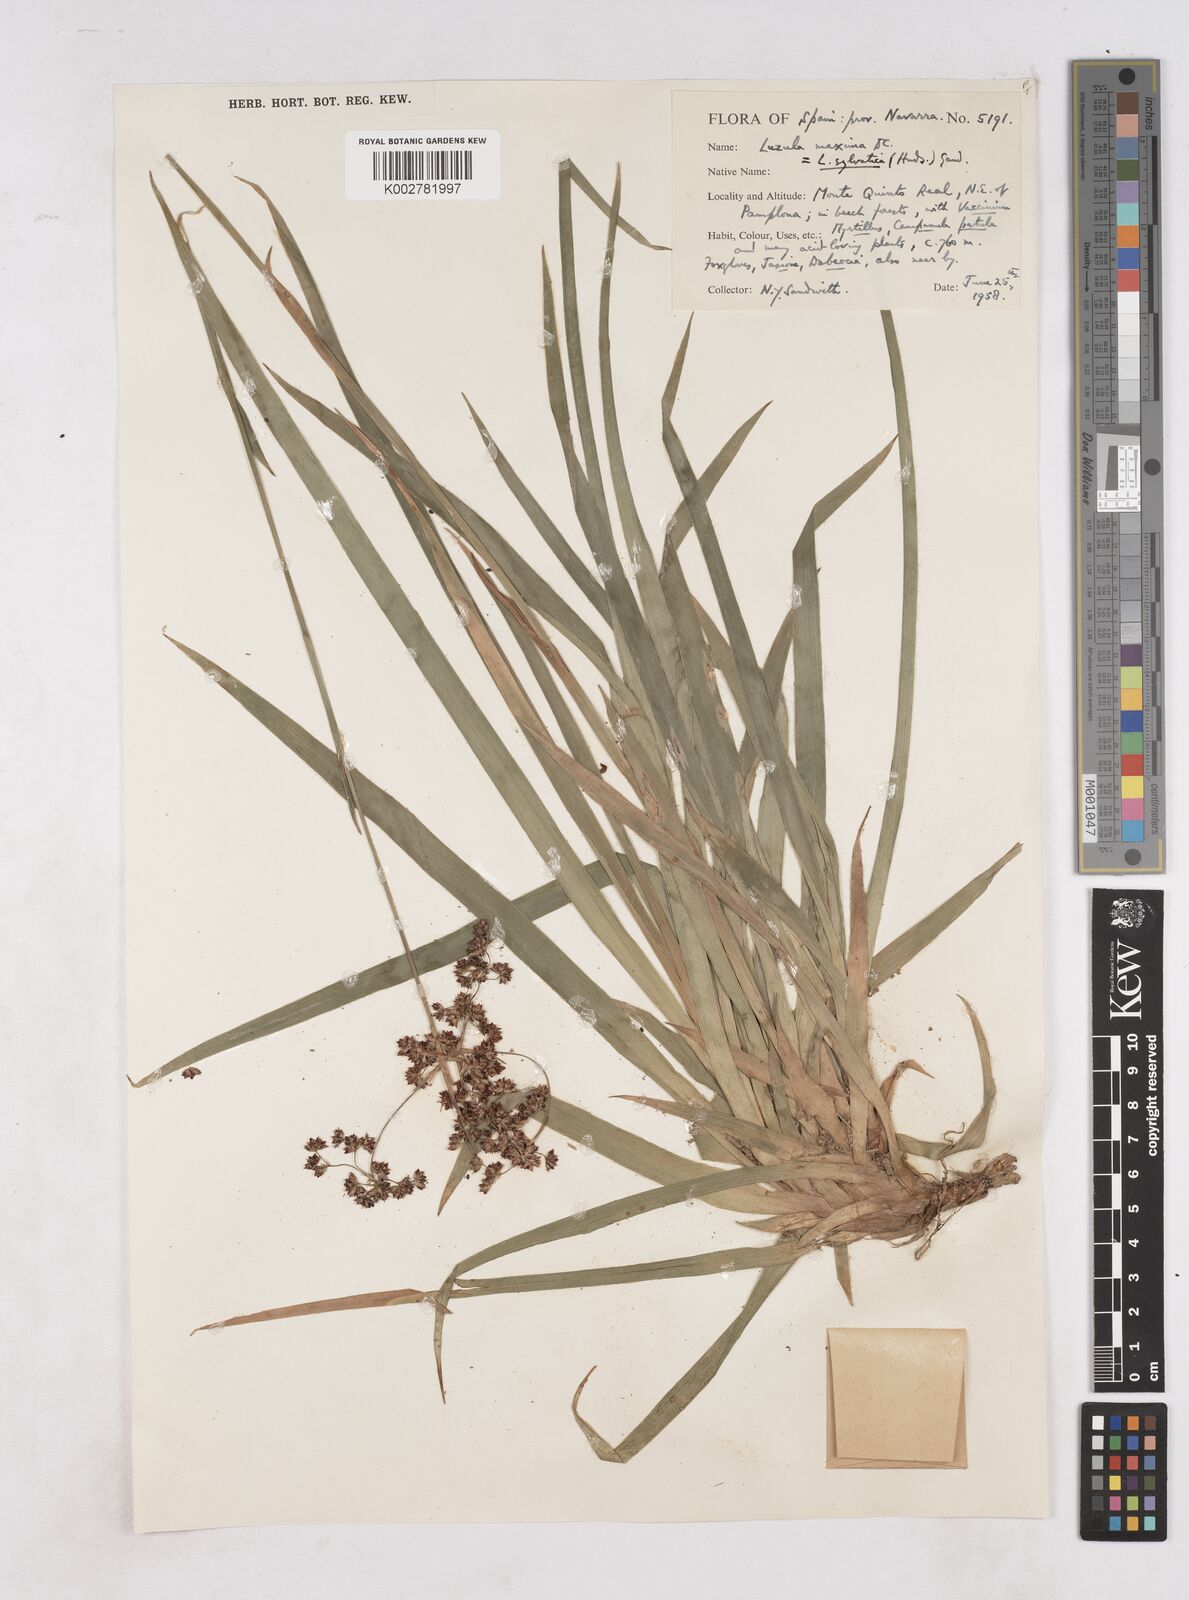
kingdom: Plantae
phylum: Tracheophyta
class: Liliopsida
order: Poales
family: Juncaceae
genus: Luzula
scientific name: Luzula sylvatica
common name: Great wood-rush
